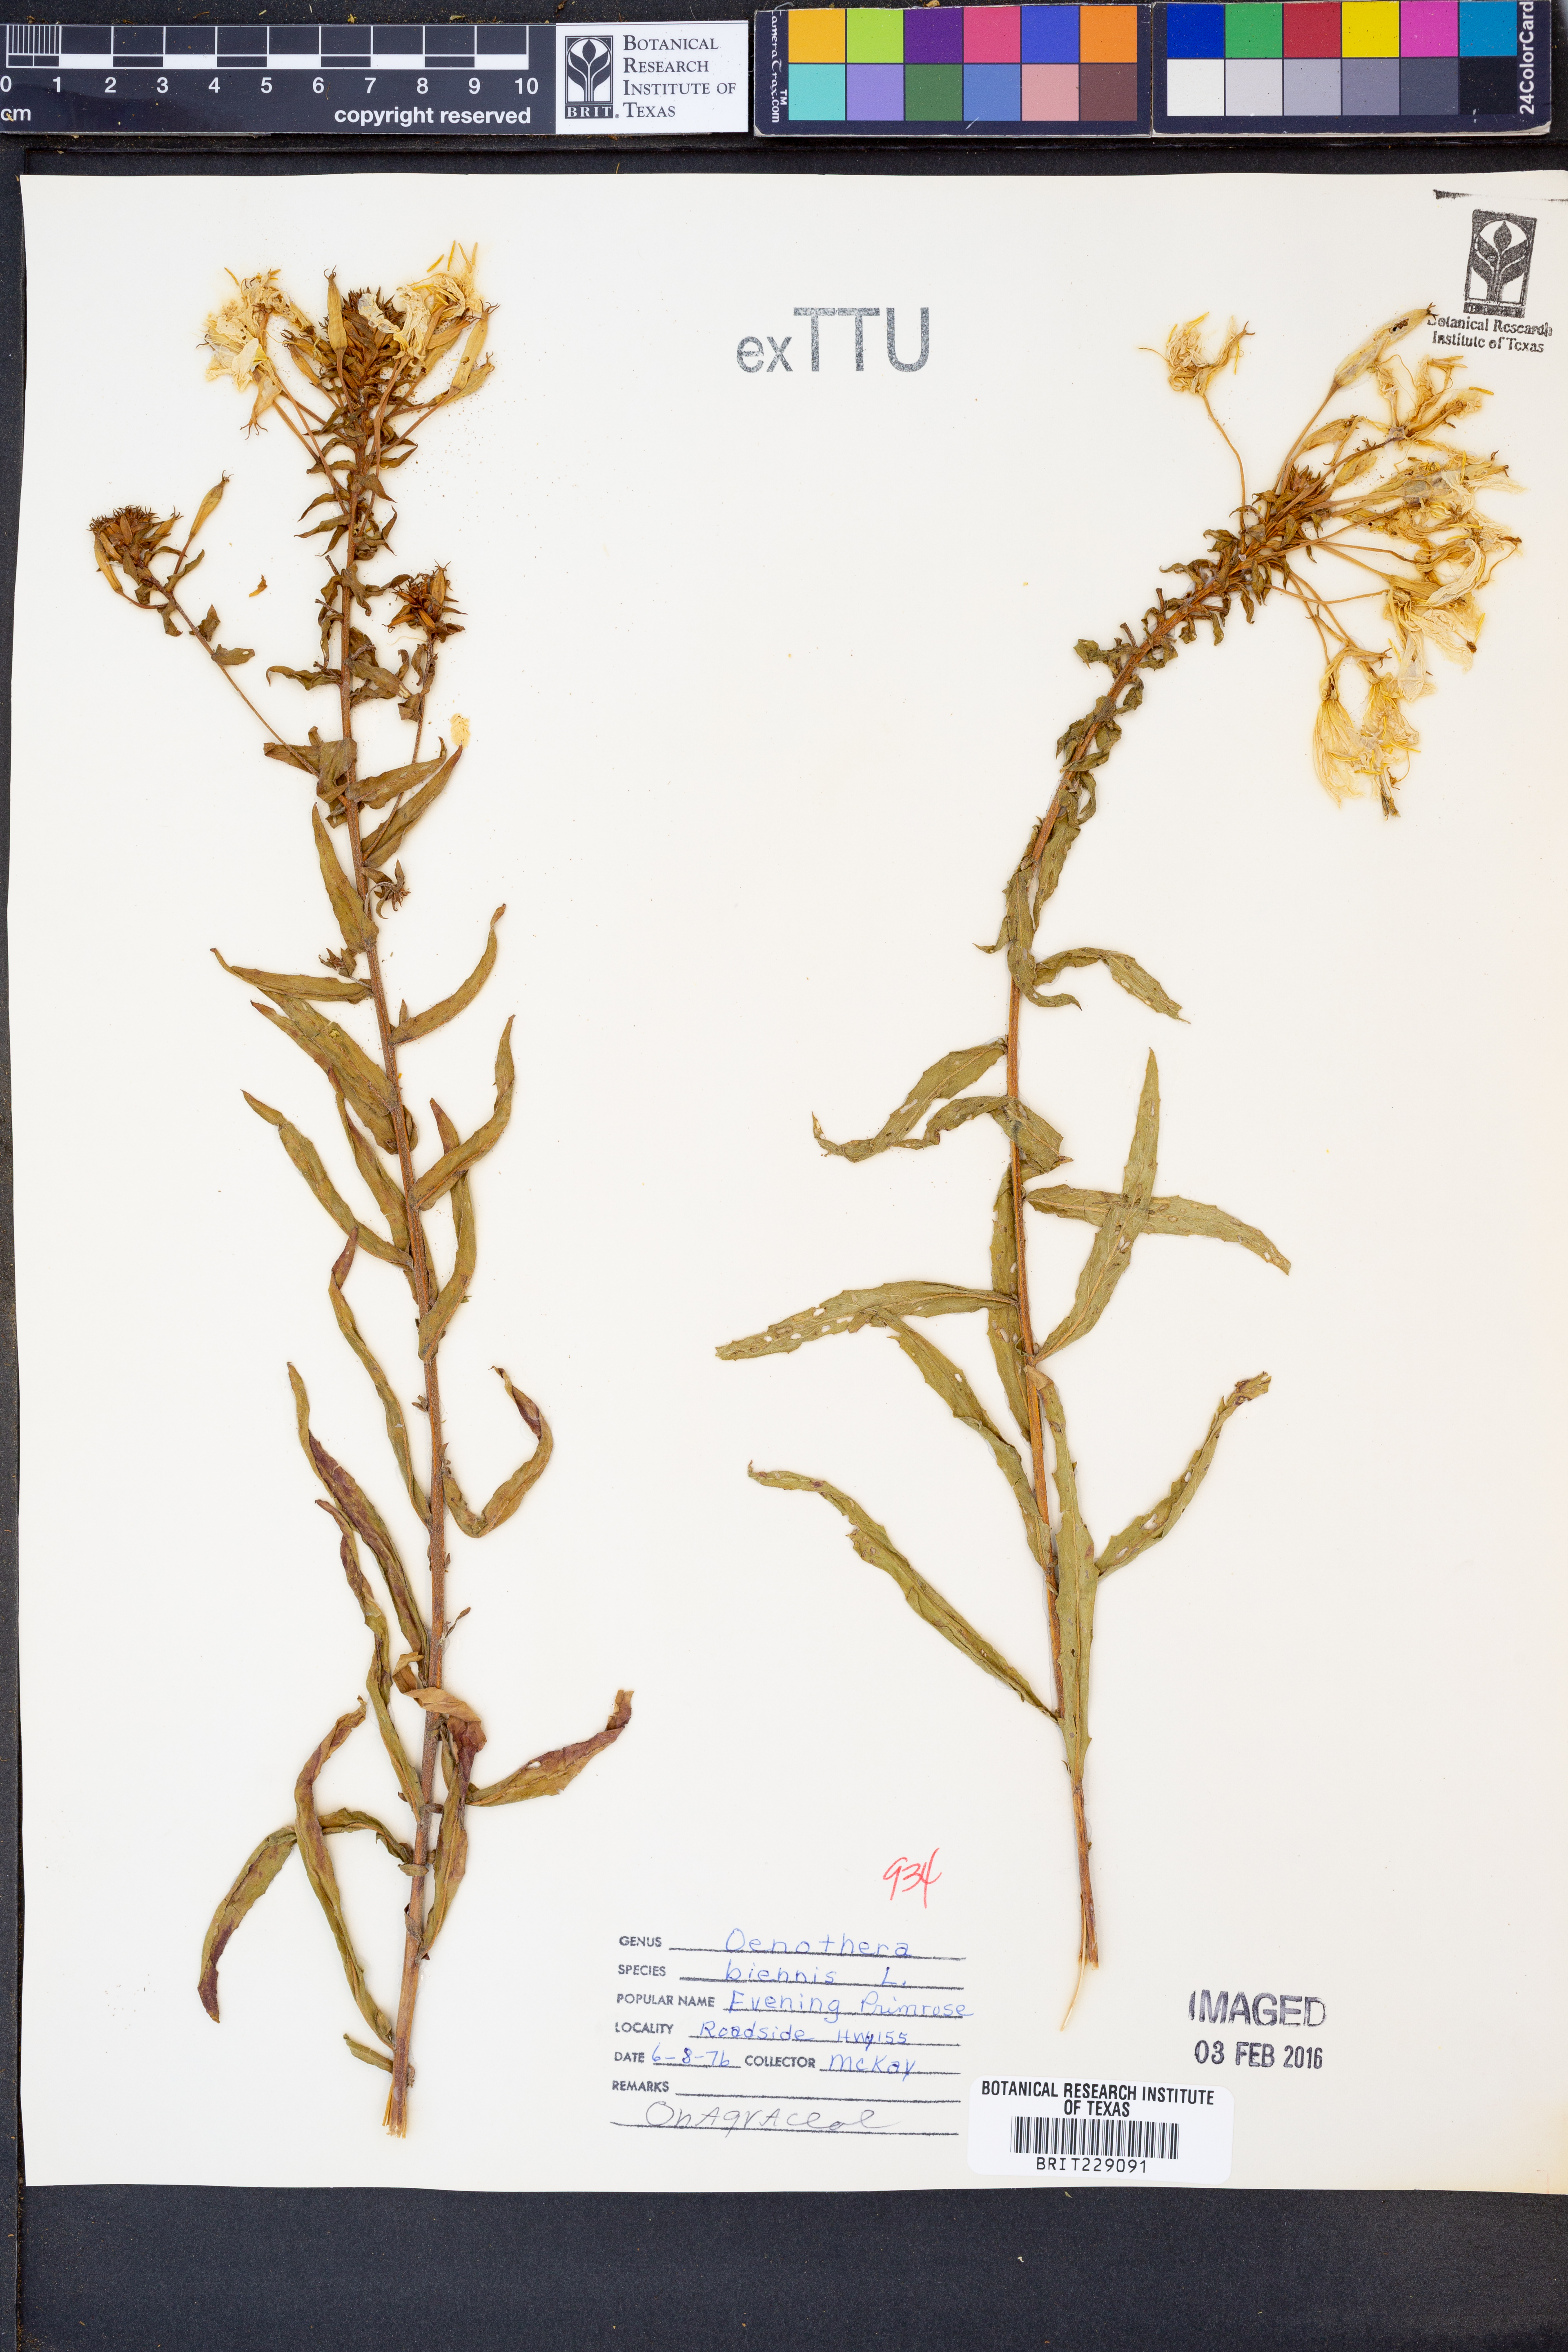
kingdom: Plantae
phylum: Tracheophyta
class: Magnoliopsida
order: Myrtales
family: Onagraceae
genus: Oenothera
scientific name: Oenothera biennis
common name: Common evening-primrose
